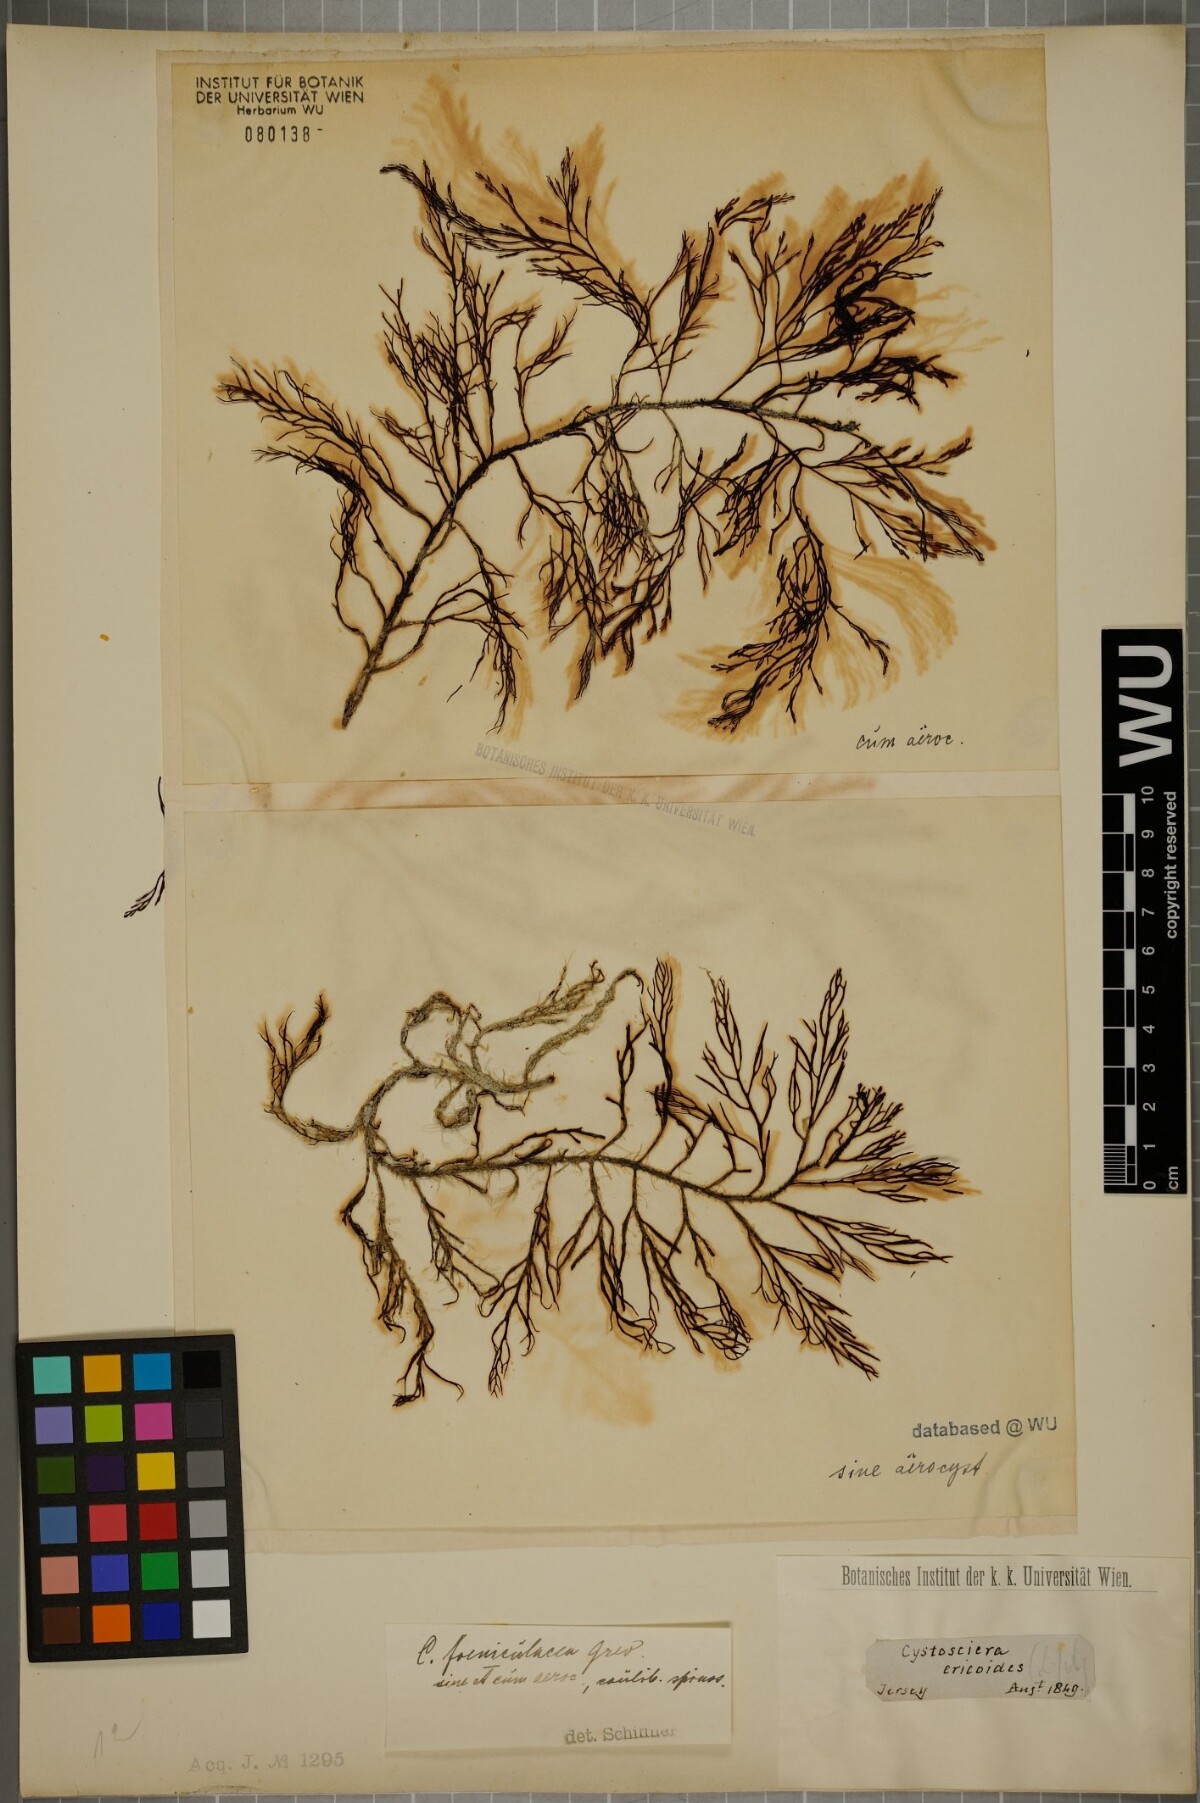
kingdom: Chromista
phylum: Ochrophyta
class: Phaeophyceae
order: Fucales
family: Sargassaceae
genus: Cystoseira
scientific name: Cystoseira Ericaria selaginoides
